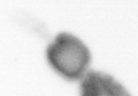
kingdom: Animalia
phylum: Arthropoda
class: Copepoda
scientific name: Copepoda
